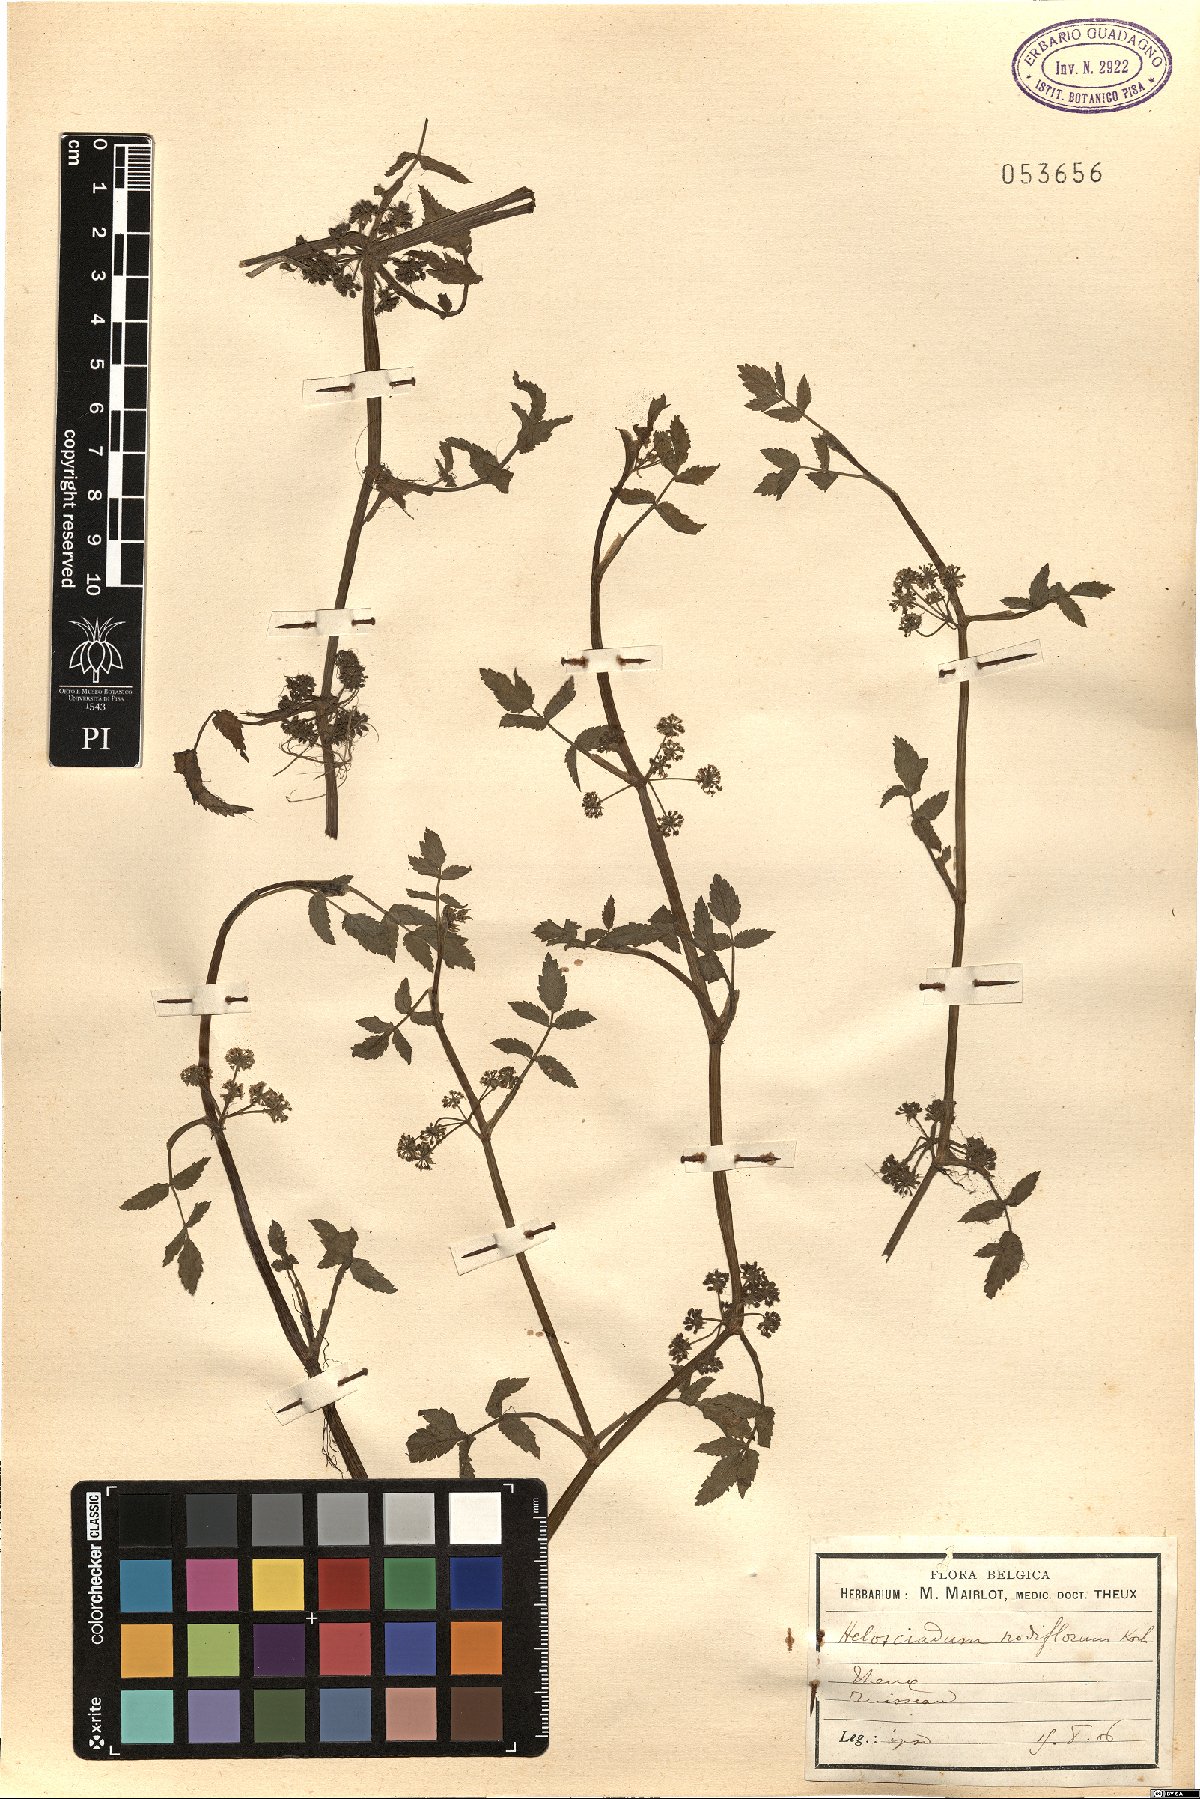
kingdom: Plantae
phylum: Tracheophyta
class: Magnoliopsida
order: Apiales
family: Apiaceae
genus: Helosciadium
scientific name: Helosciadium nodiflorum
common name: Fool's-watercress
